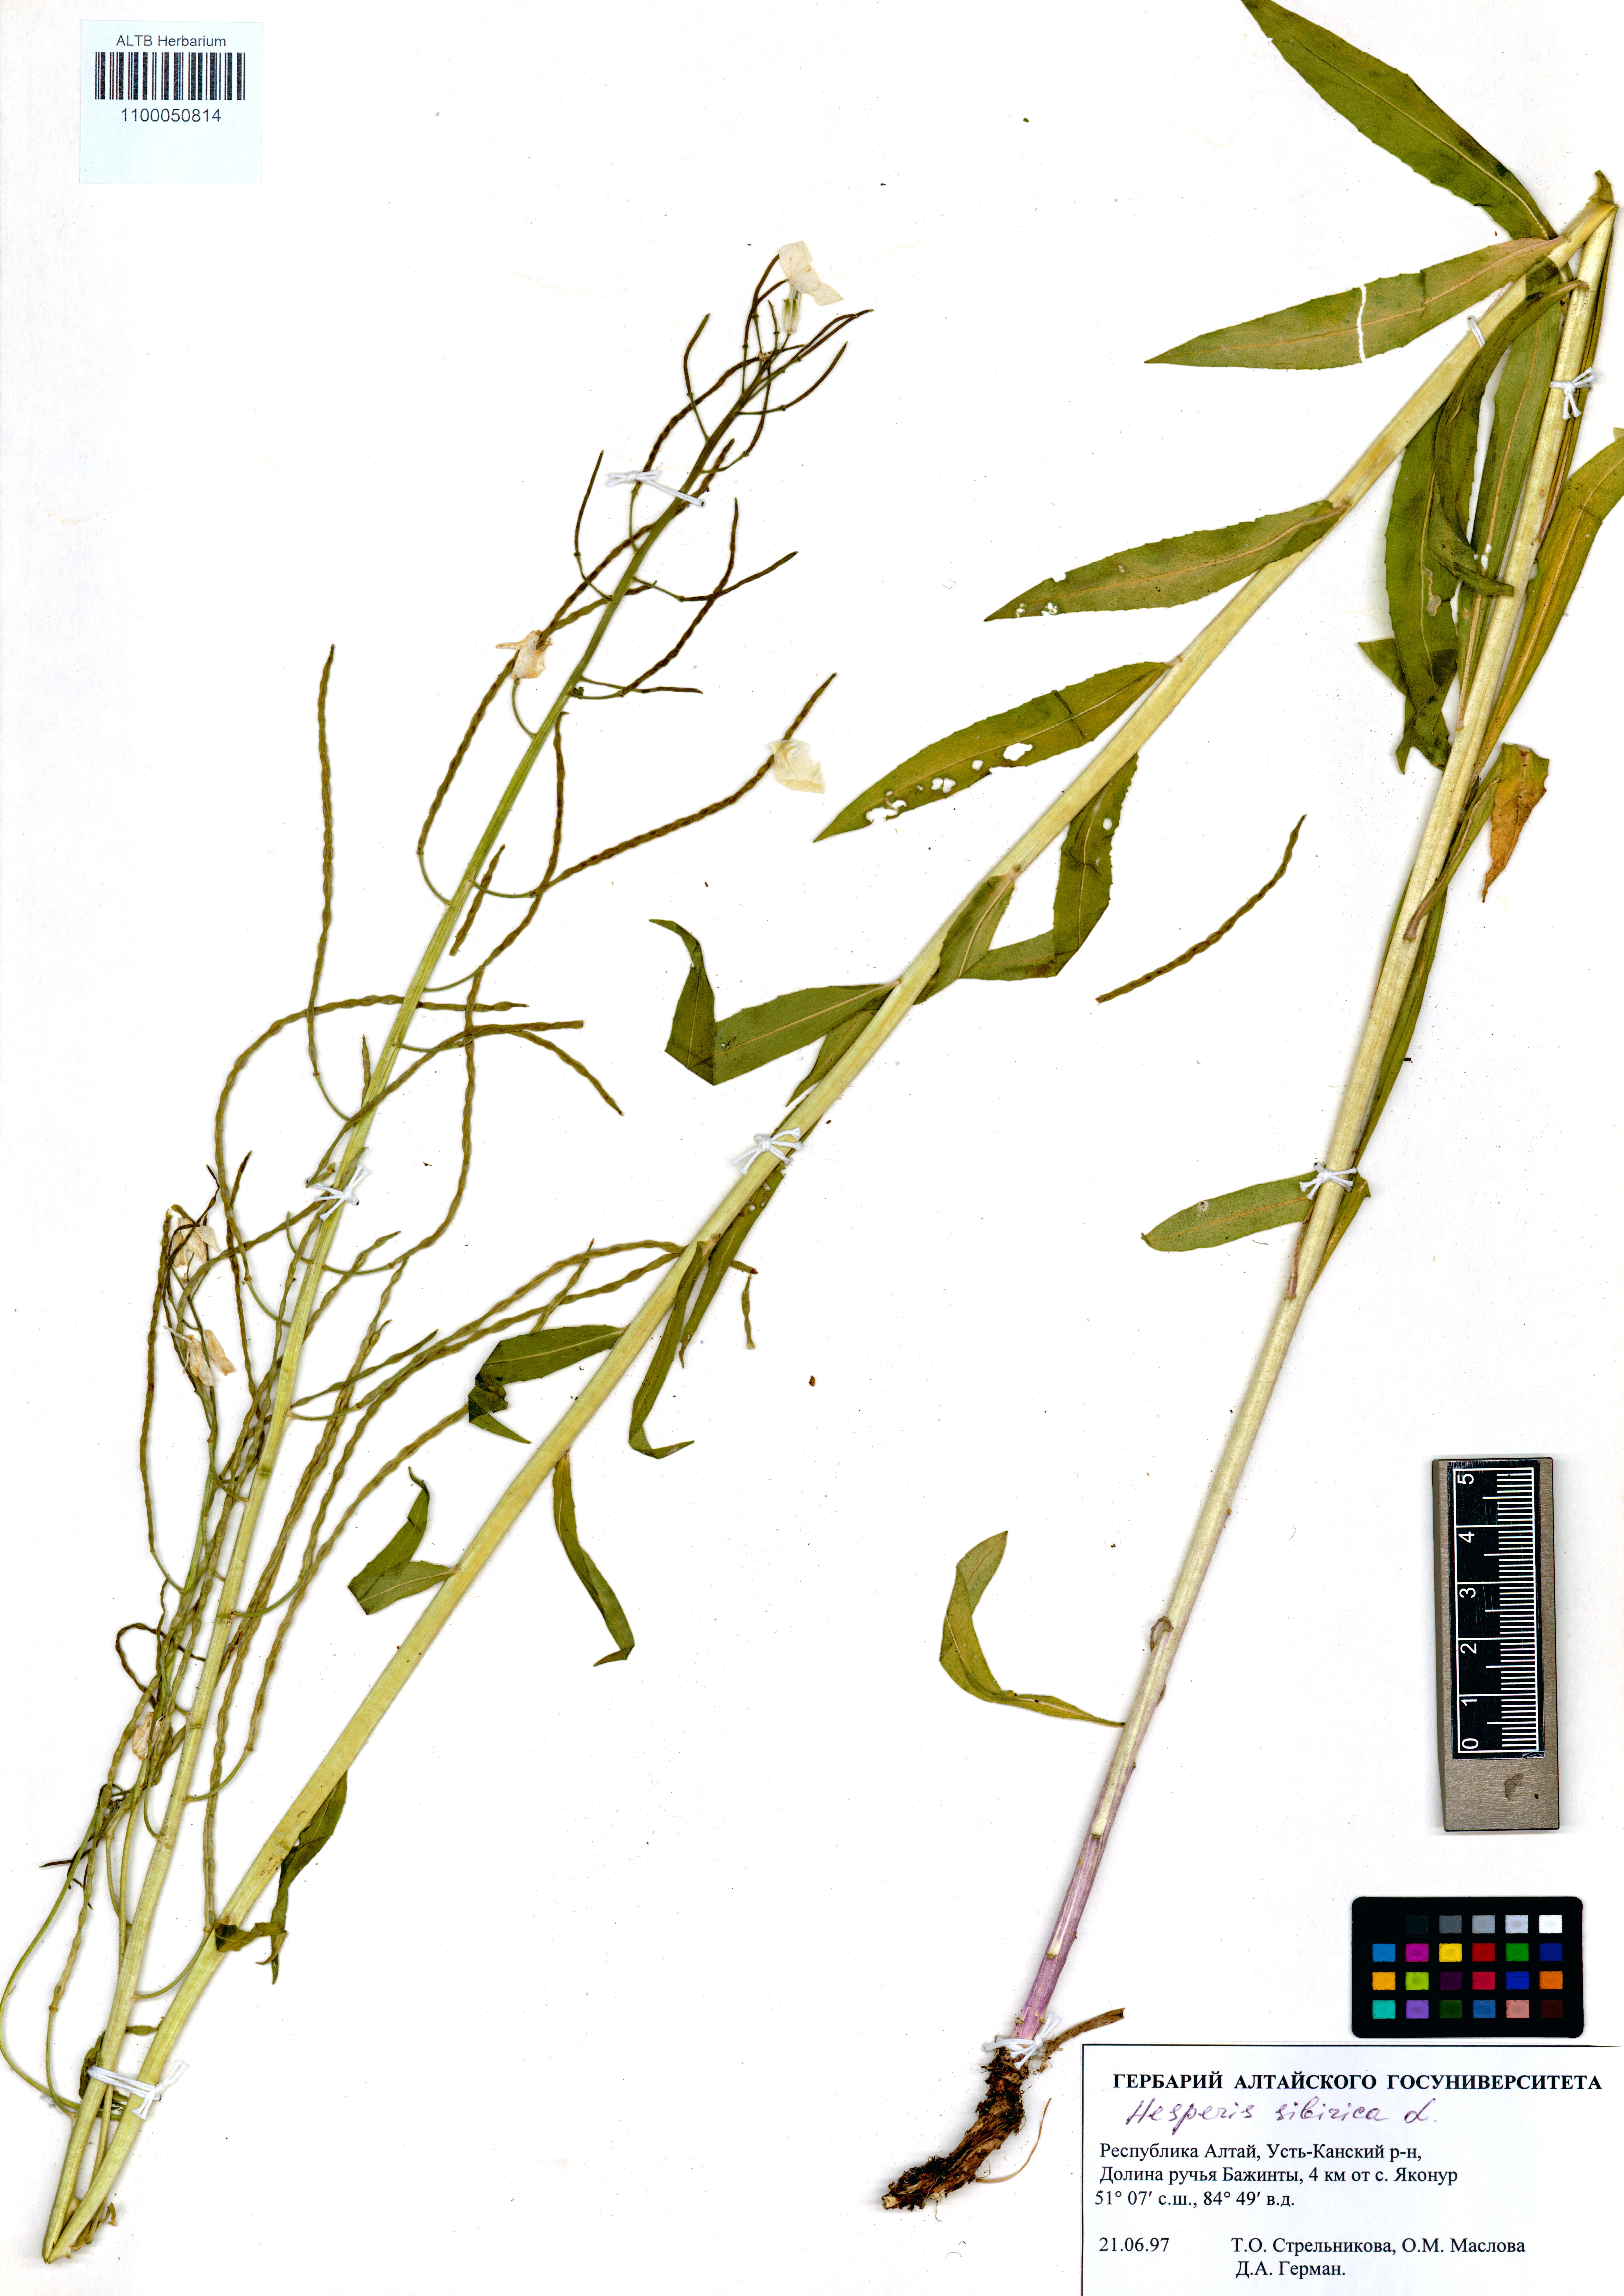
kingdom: Plantae
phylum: Tracheophyta
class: Magnoliopsida
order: Brassicales
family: Brassicaceae
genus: Hesperis
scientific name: Hesperis sibirica
